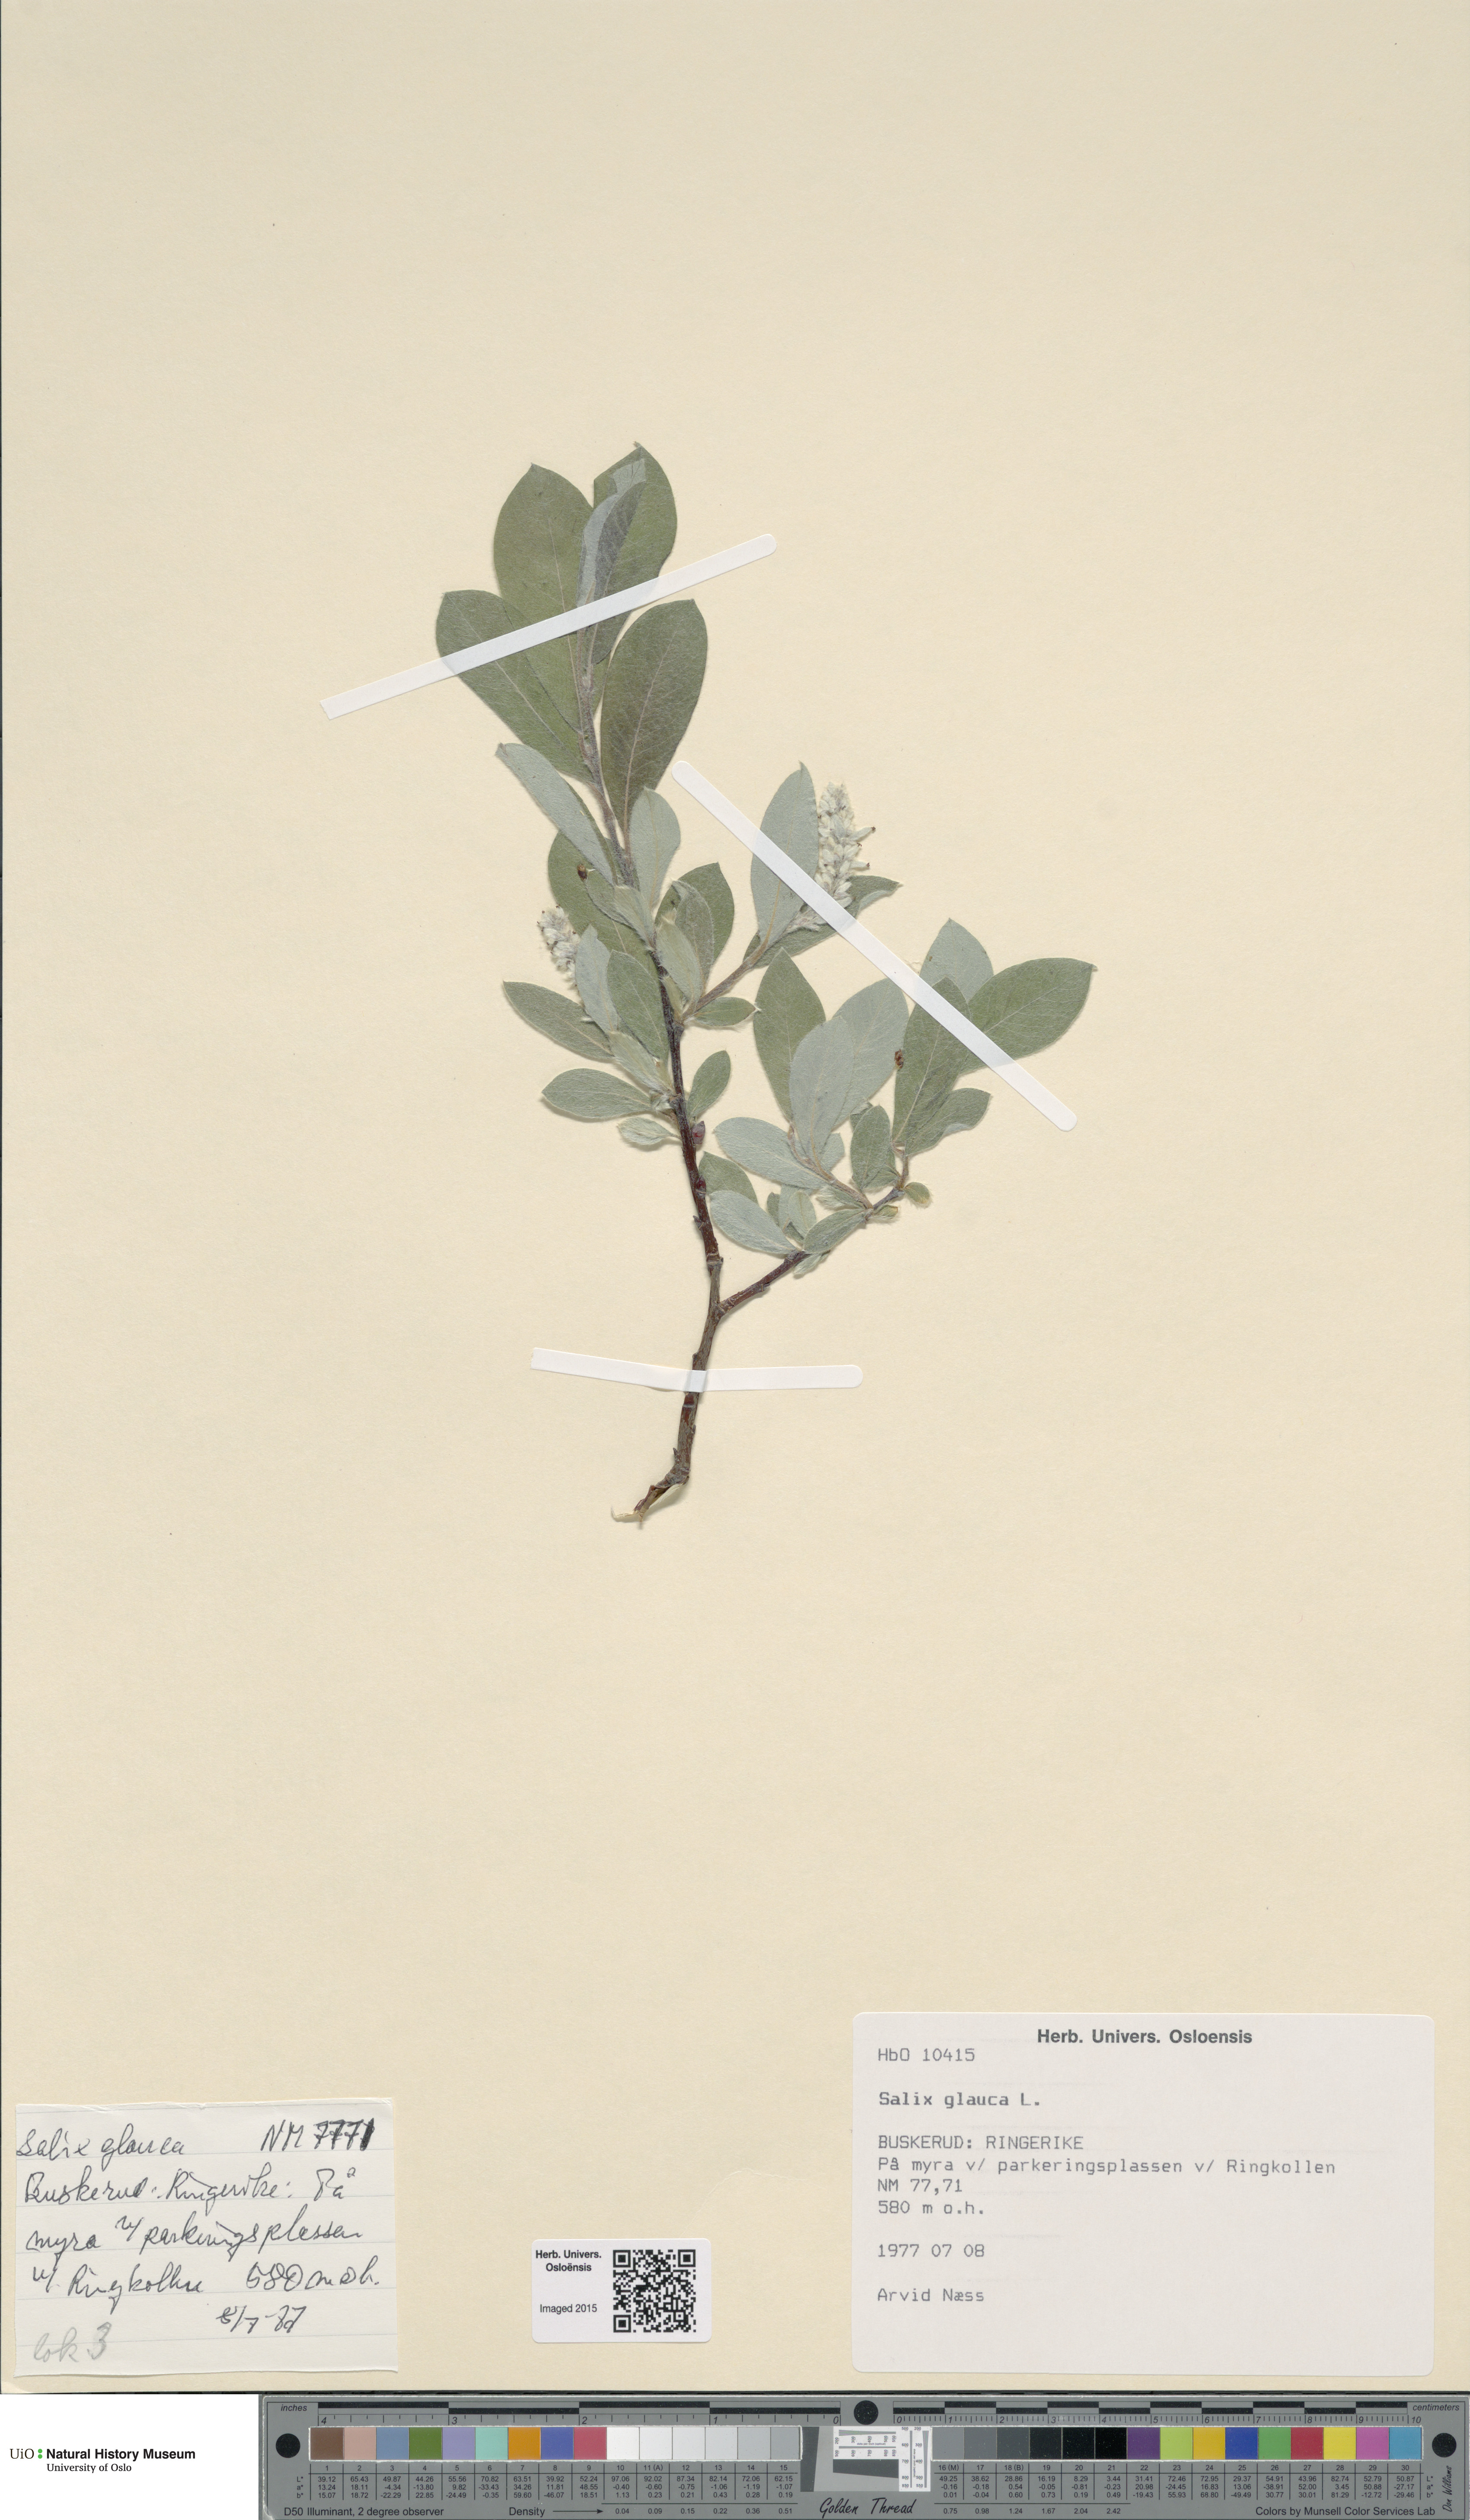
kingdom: Plantae
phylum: Tracheophyta
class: Magnoliopsida
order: Malpighiales
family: Salicaceae
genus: Salix
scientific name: Salix glauca
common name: Glaucous willow
